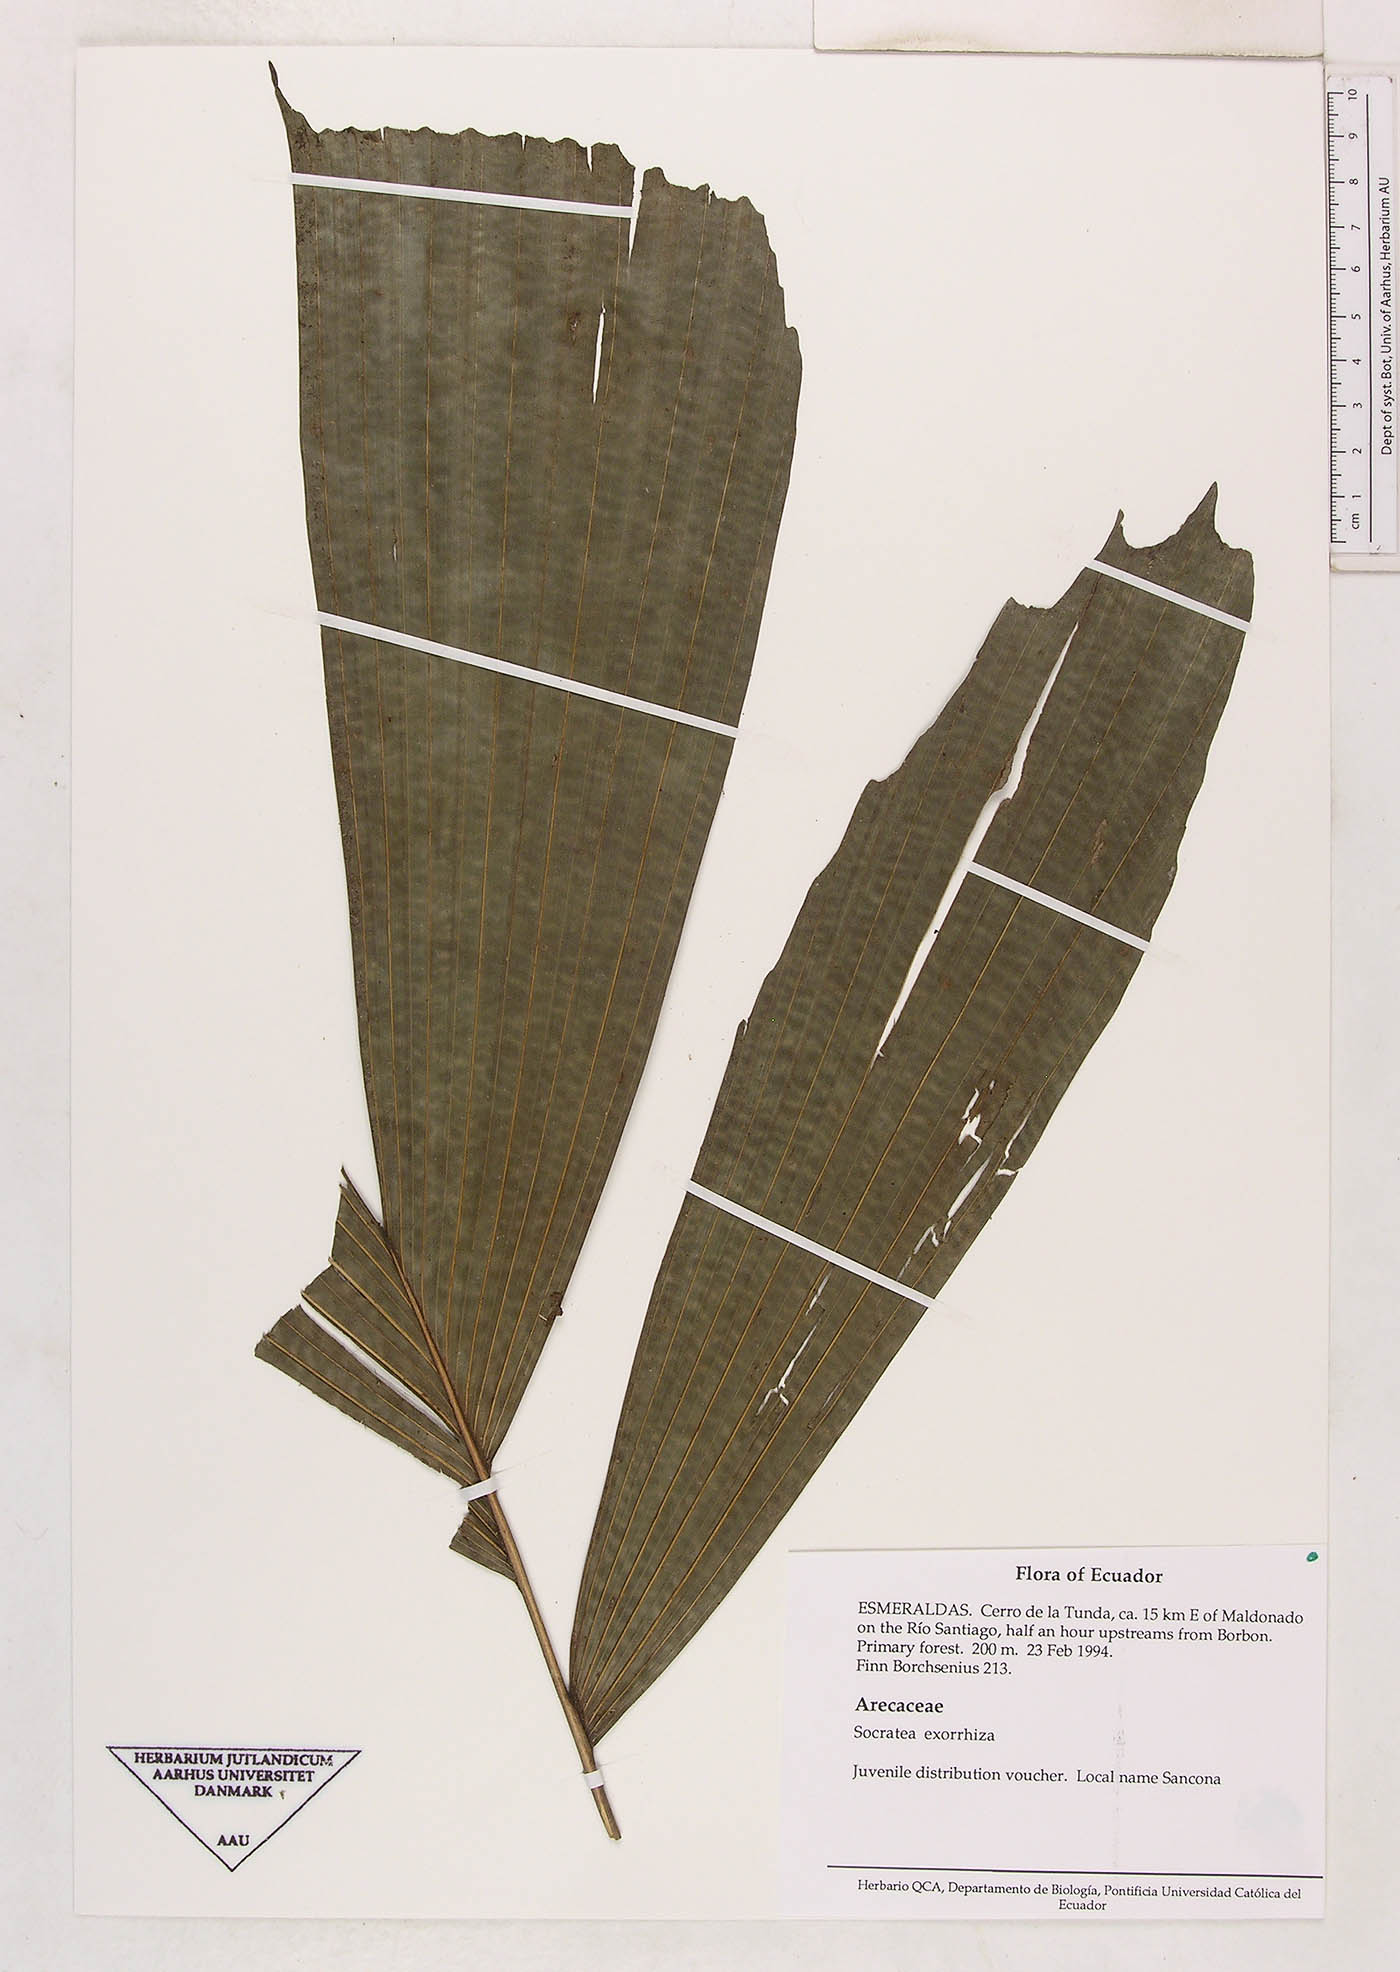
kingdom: Plantae
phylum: Tracheophyta
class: Liliopsida
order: Arecales
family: Arecaceae
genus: Socratea
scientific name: Socratea exorrhiza
